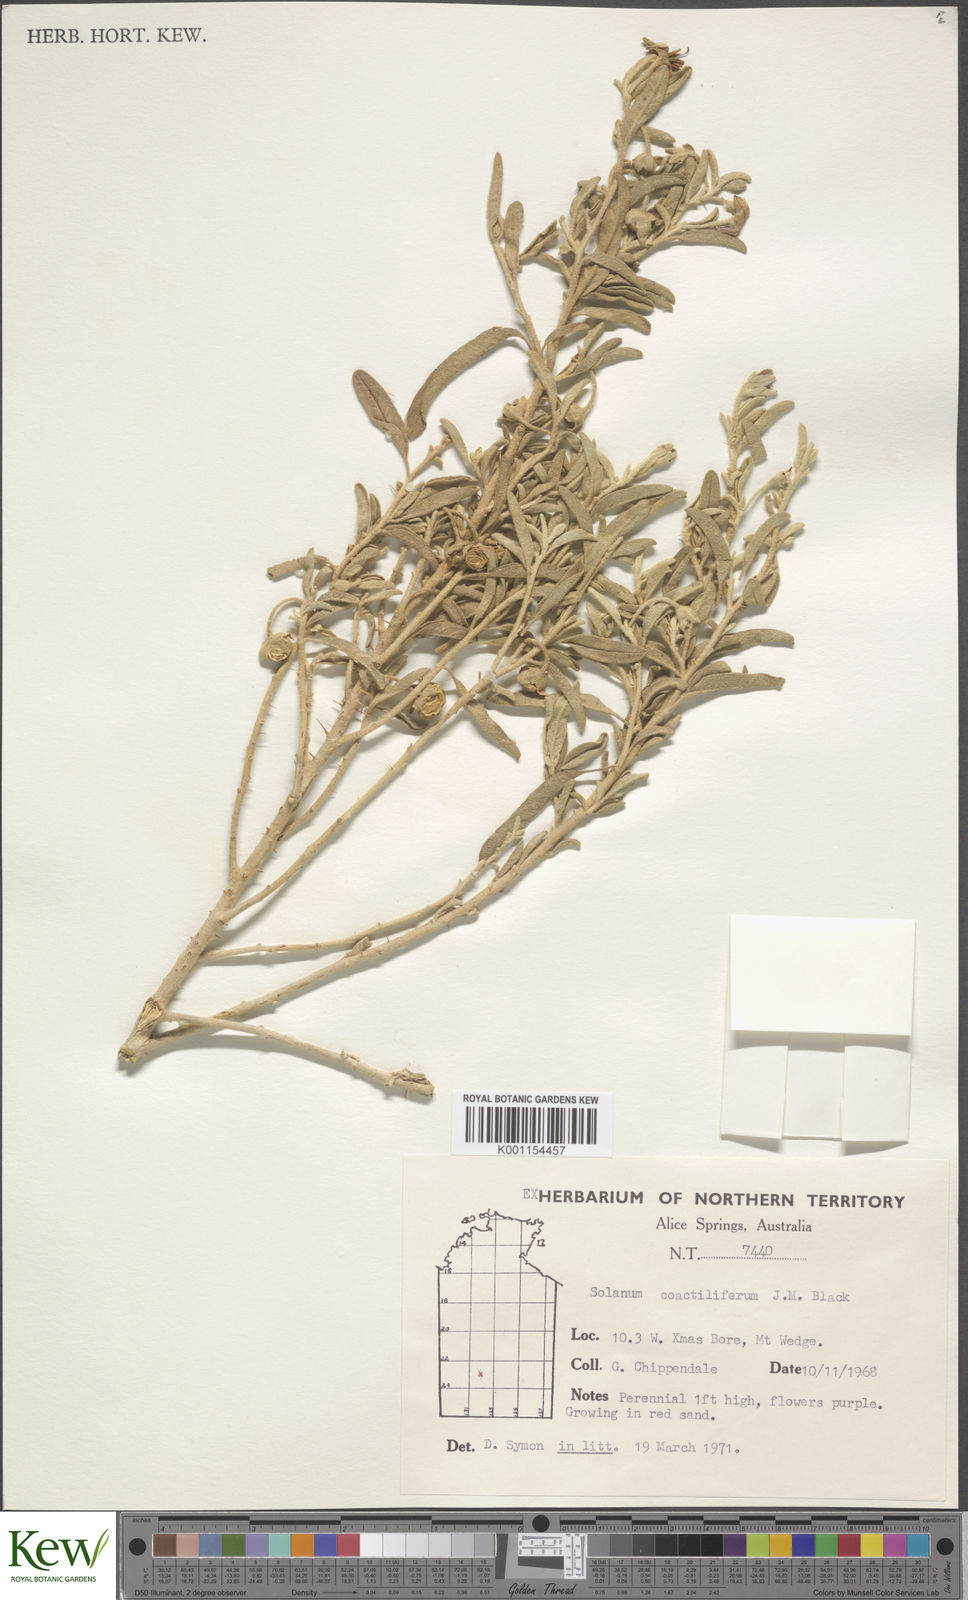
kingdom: Plantae
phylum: Tracheophyta
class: Magnoliopsida
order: Solanales
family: Solanaceae
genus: Solanum
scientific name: Solanum coactiliferum
